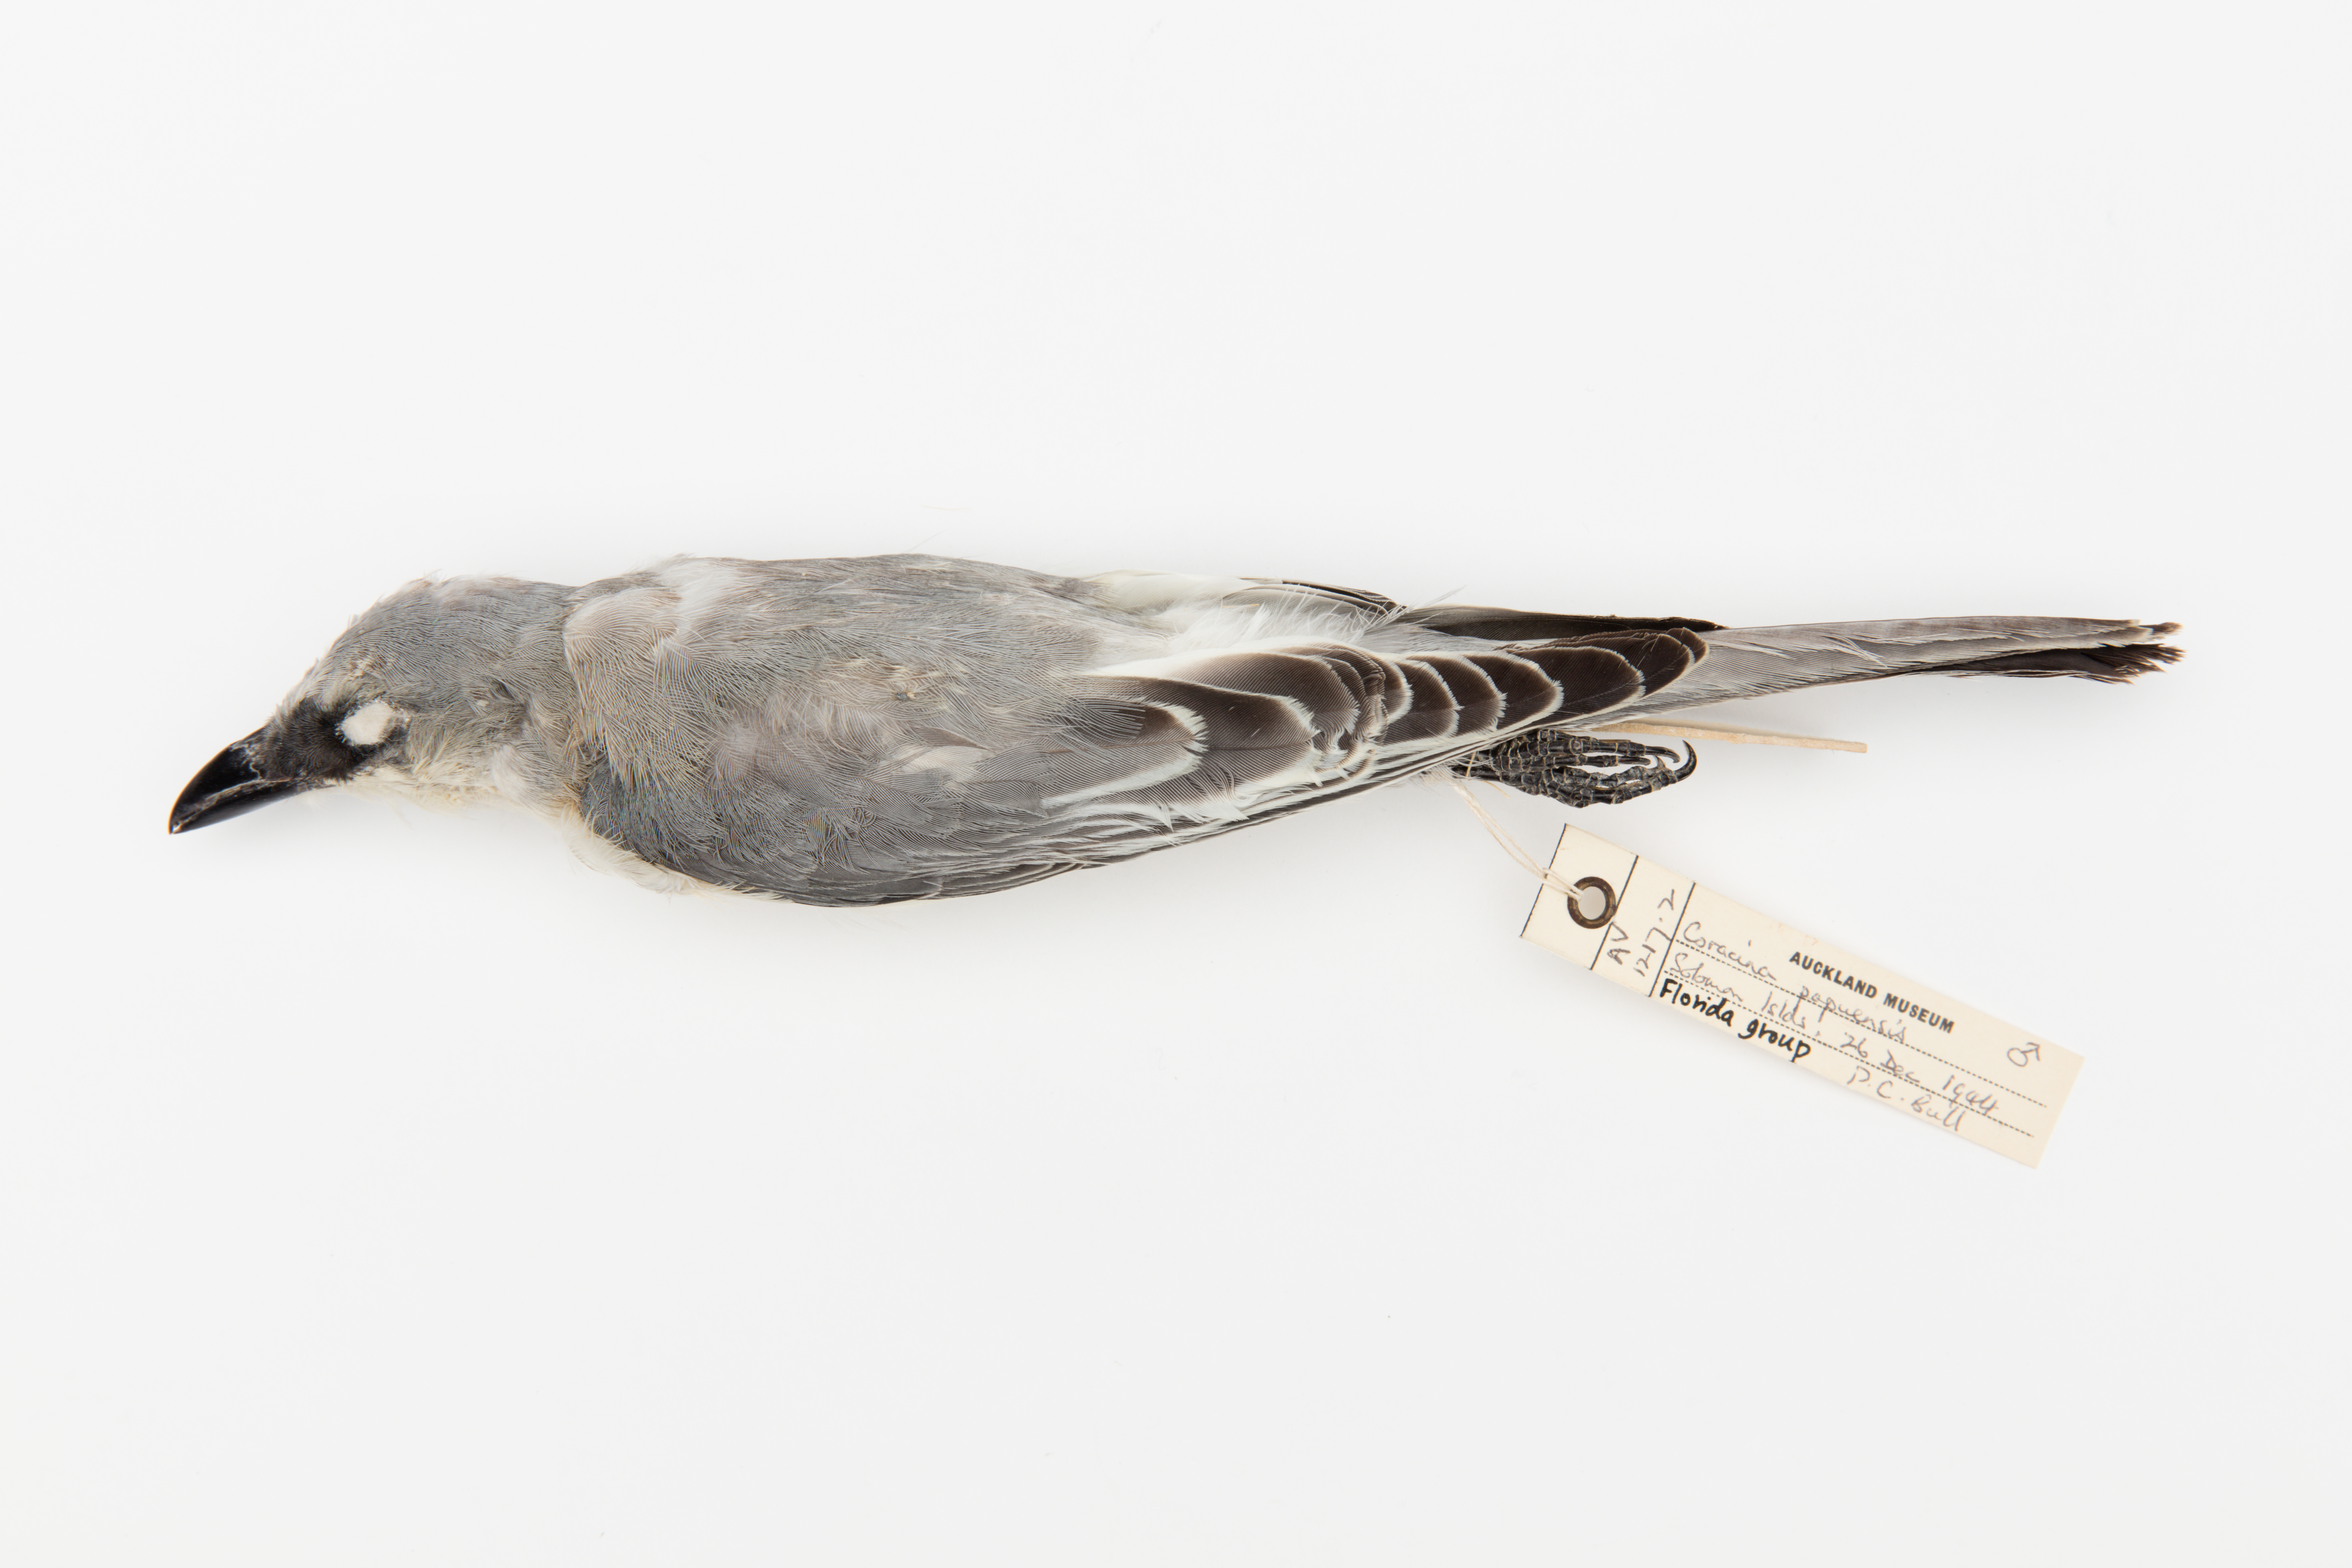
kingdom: Animalia
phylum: Chordata
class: Aves
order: Passeriformes
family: Campephagidae
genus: Coracina
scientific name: Coracina papuensis
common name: White-bellied cuckooshrike
